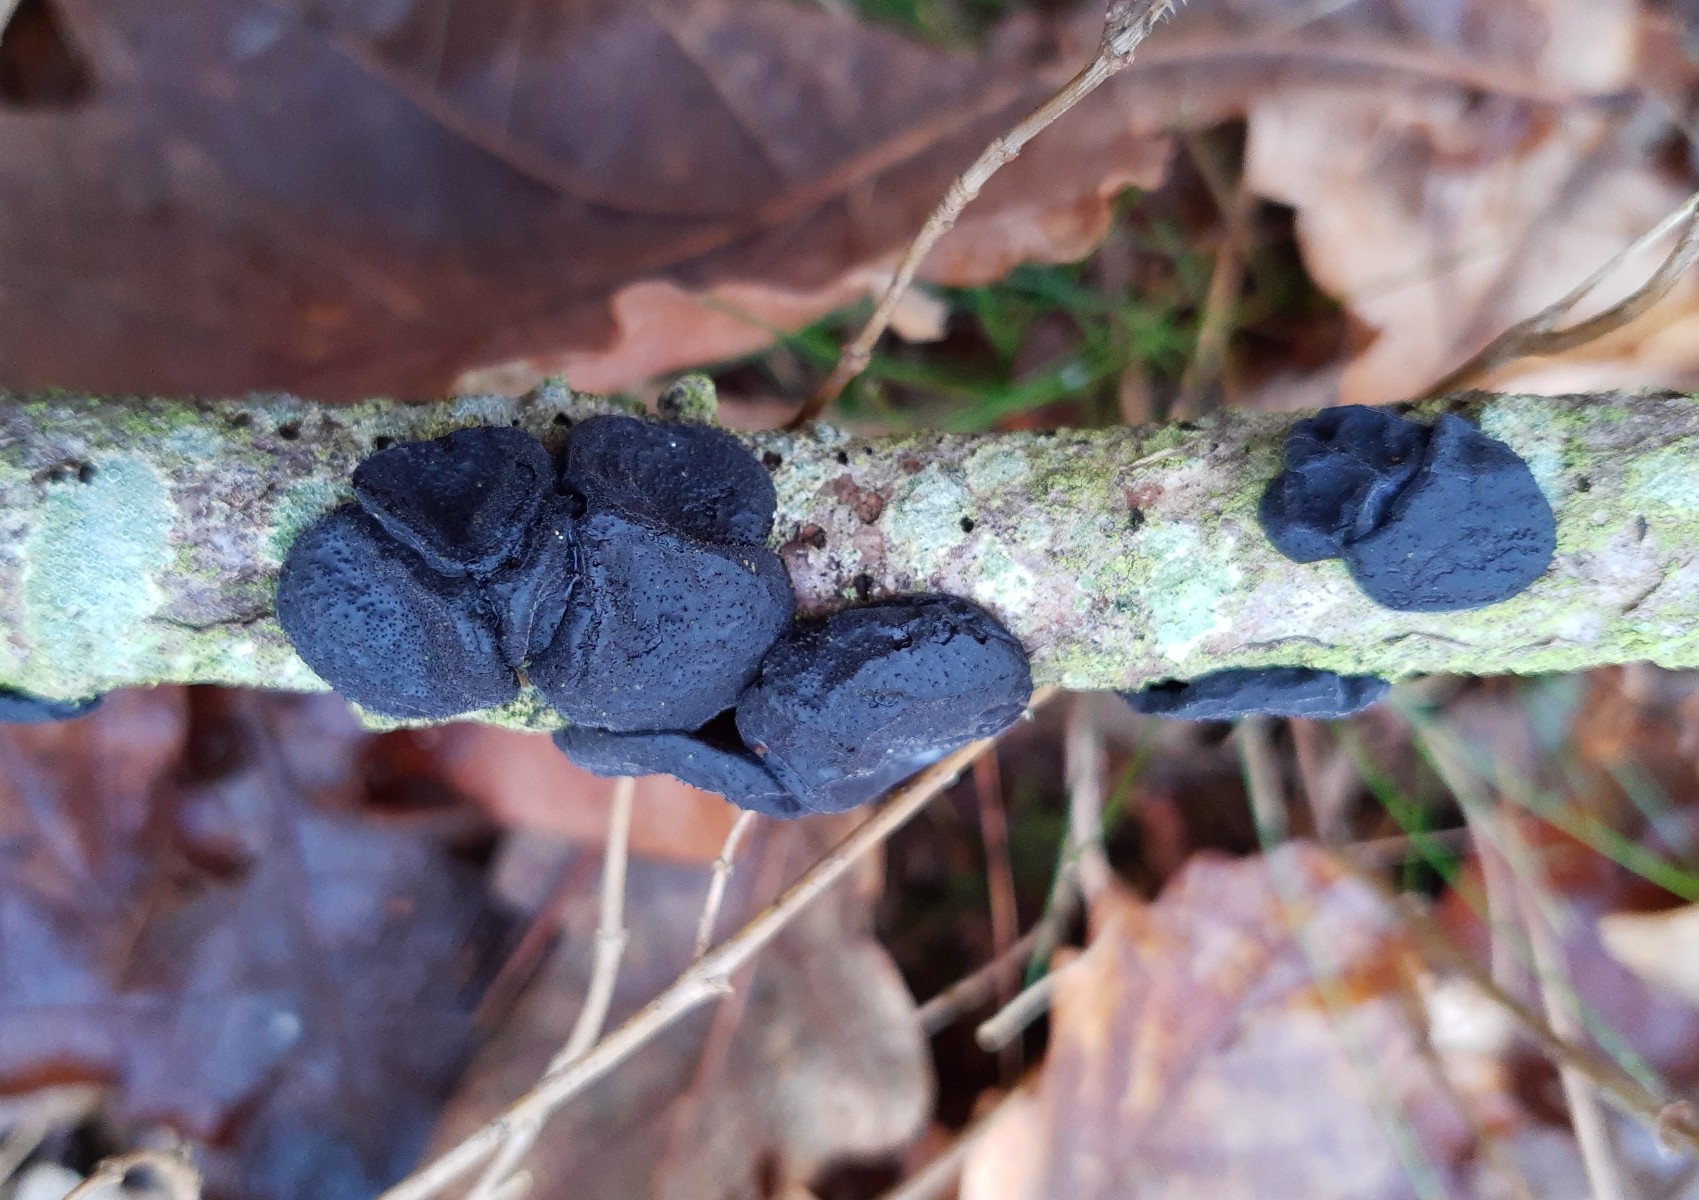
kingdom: Fungi
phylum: Basidiomycota
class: Agaricomycetes
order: Auriculariales
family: Auriculariaceae
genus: Exidia
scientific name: Exidia glandulosa
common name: ege-bævretop
